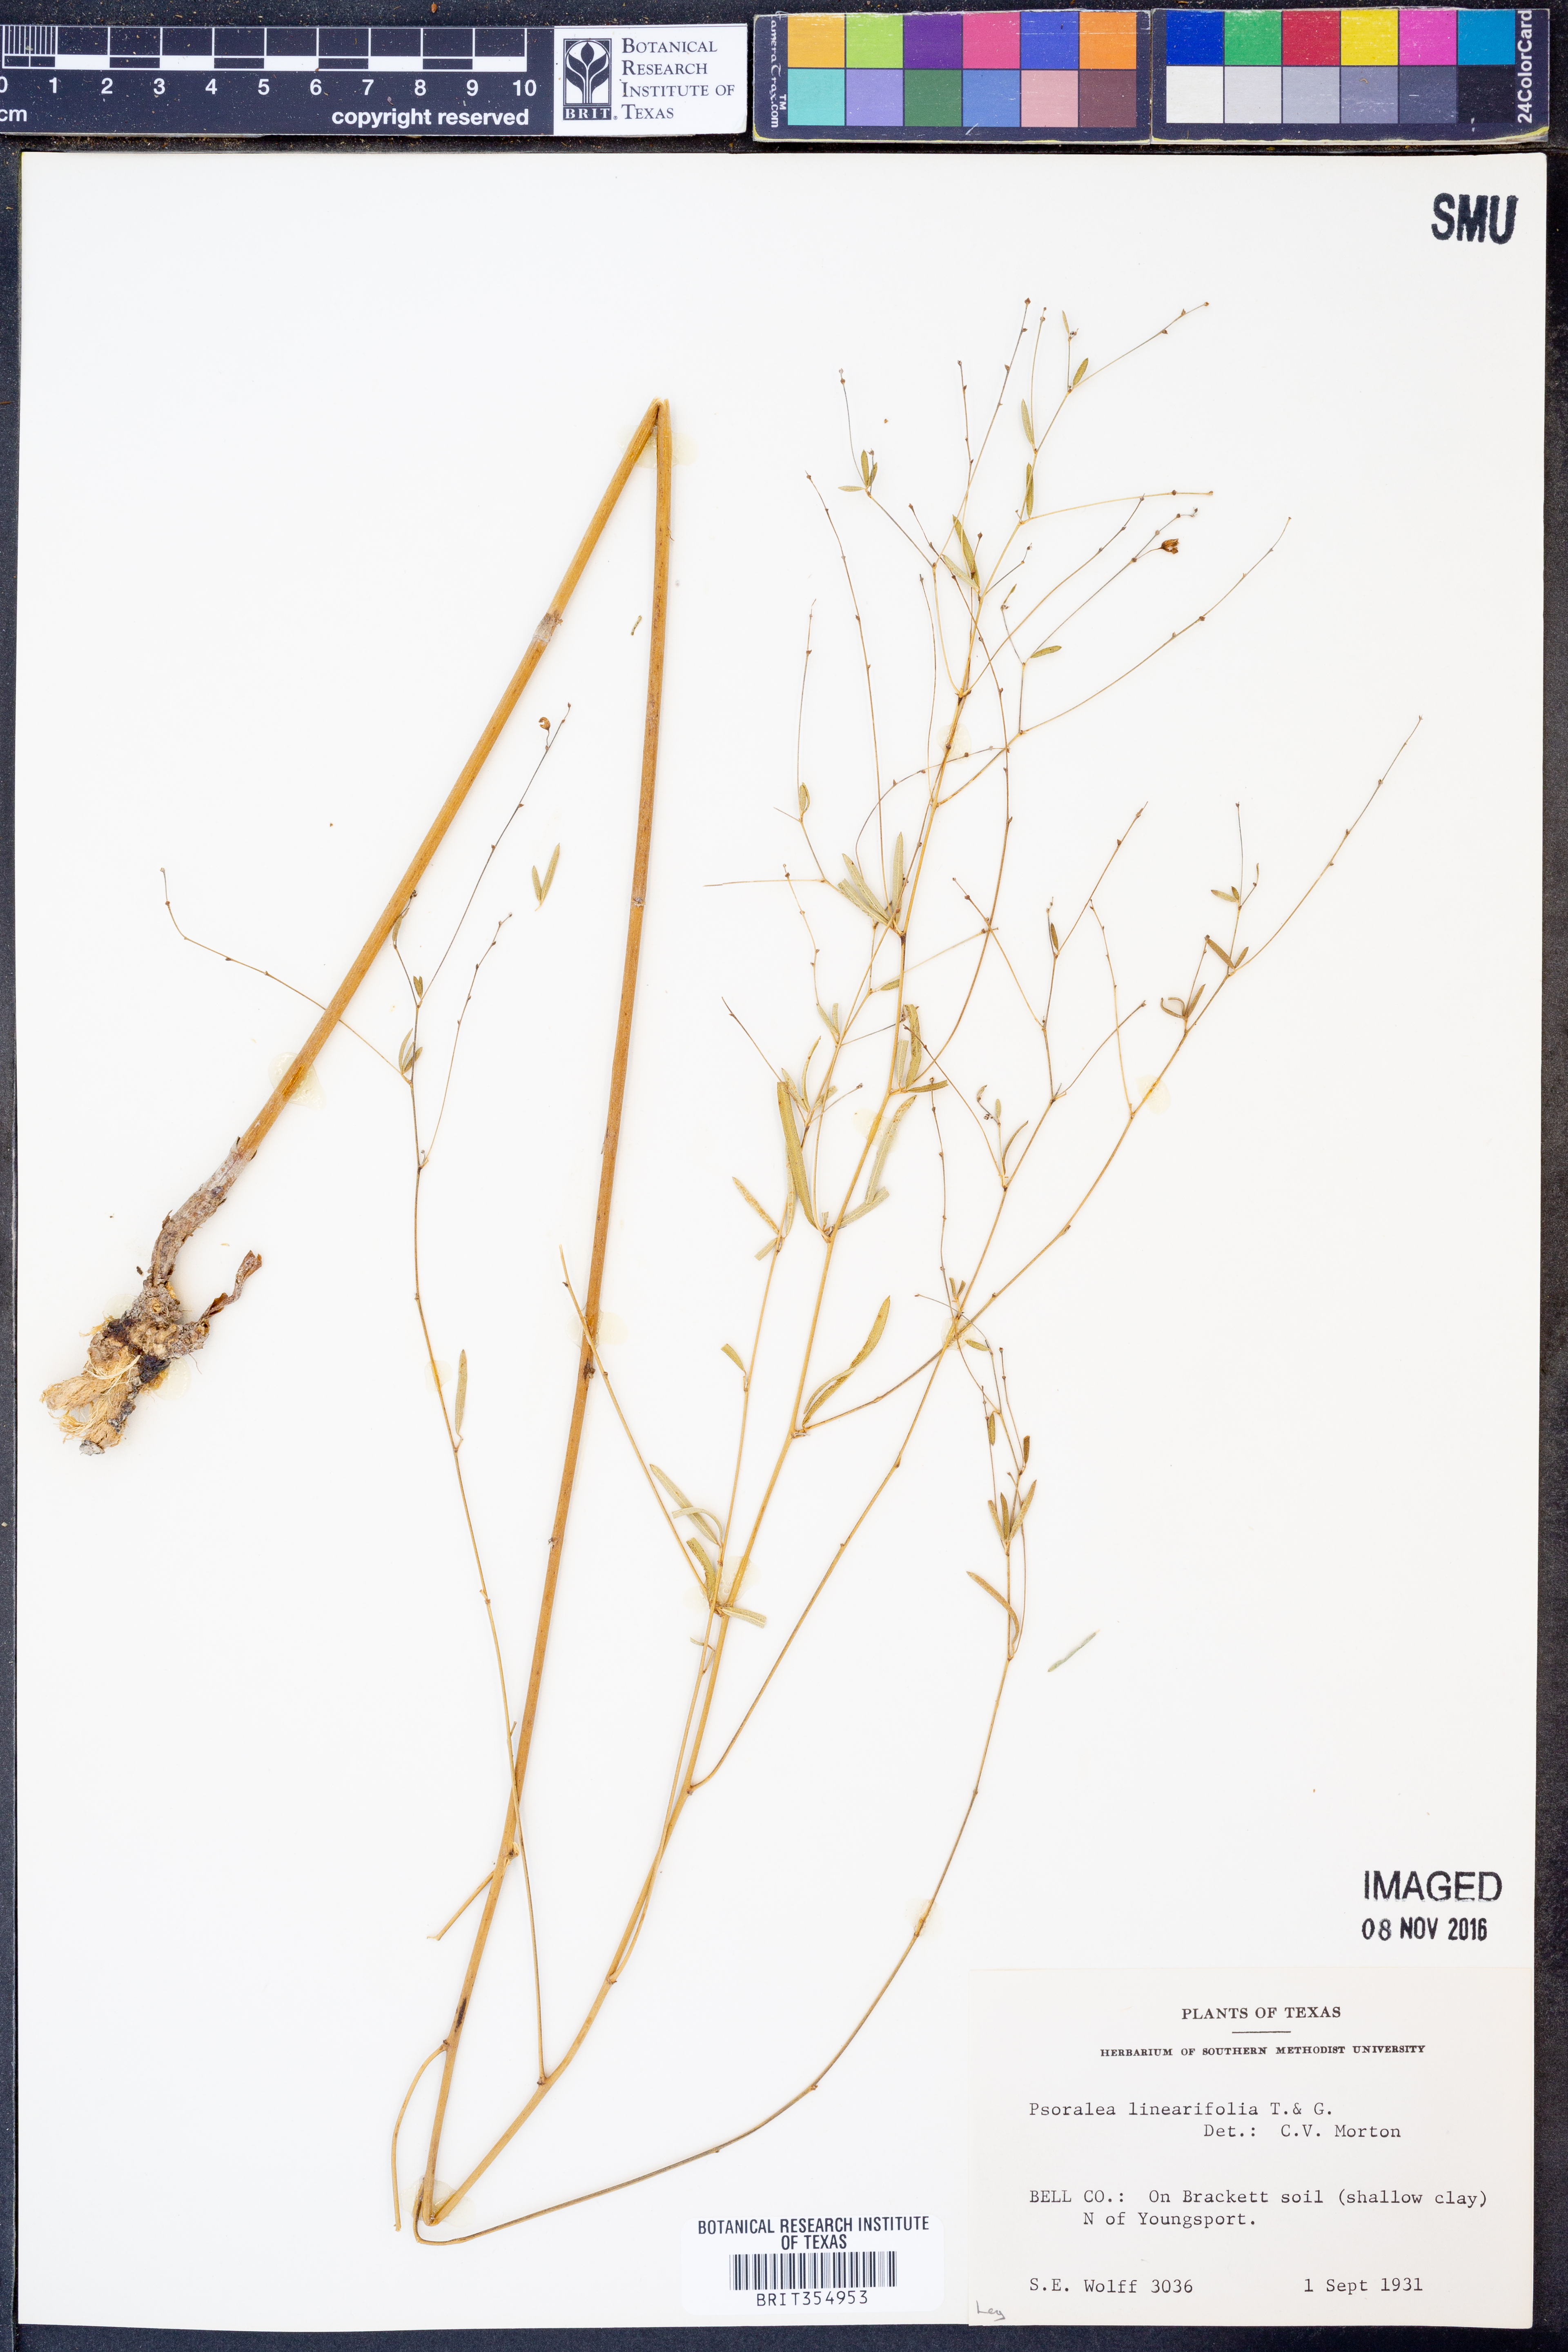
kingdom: Plantae
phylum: Tracheophyta
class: Magnoliopsida
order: Fabales
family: Fabaceae
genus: Pediomelum
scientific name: Pediomelum linearifolium
